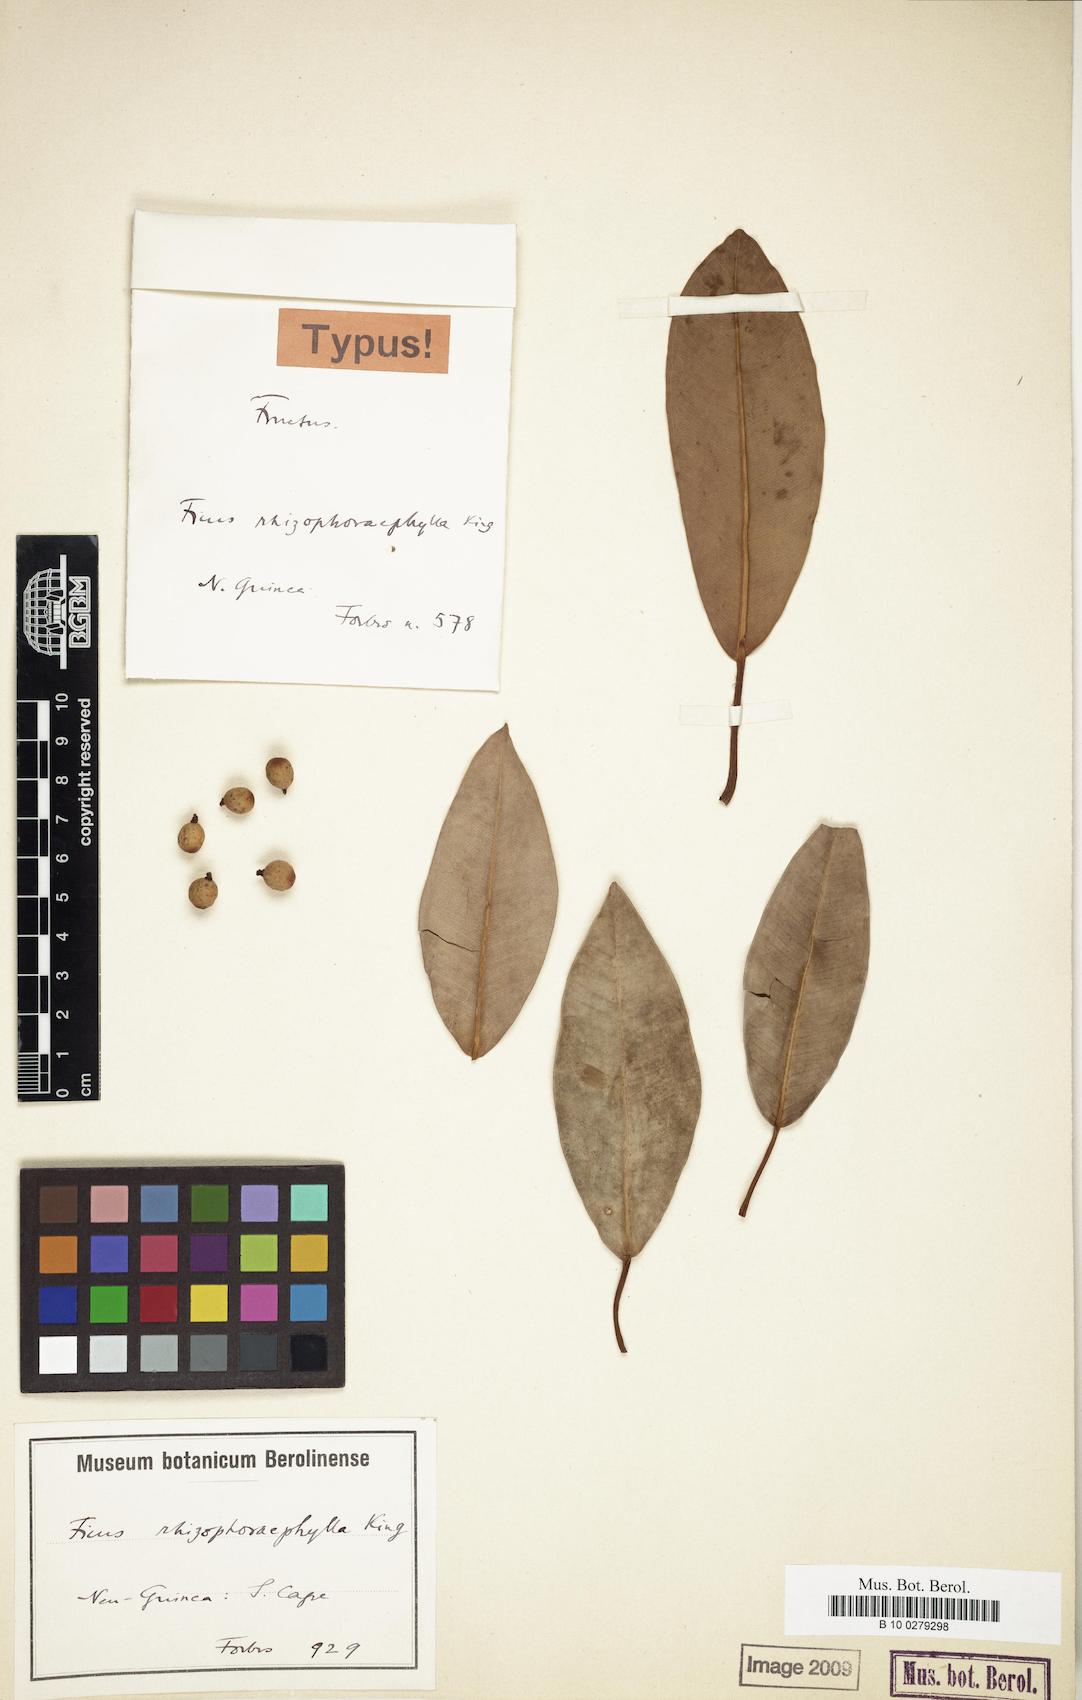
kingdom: Plantae
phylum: Tracheophyta
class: Magnoliopsida
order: Rosales
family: Moraceae
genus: Ficus
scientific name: Ficus rhizophoraephylla
